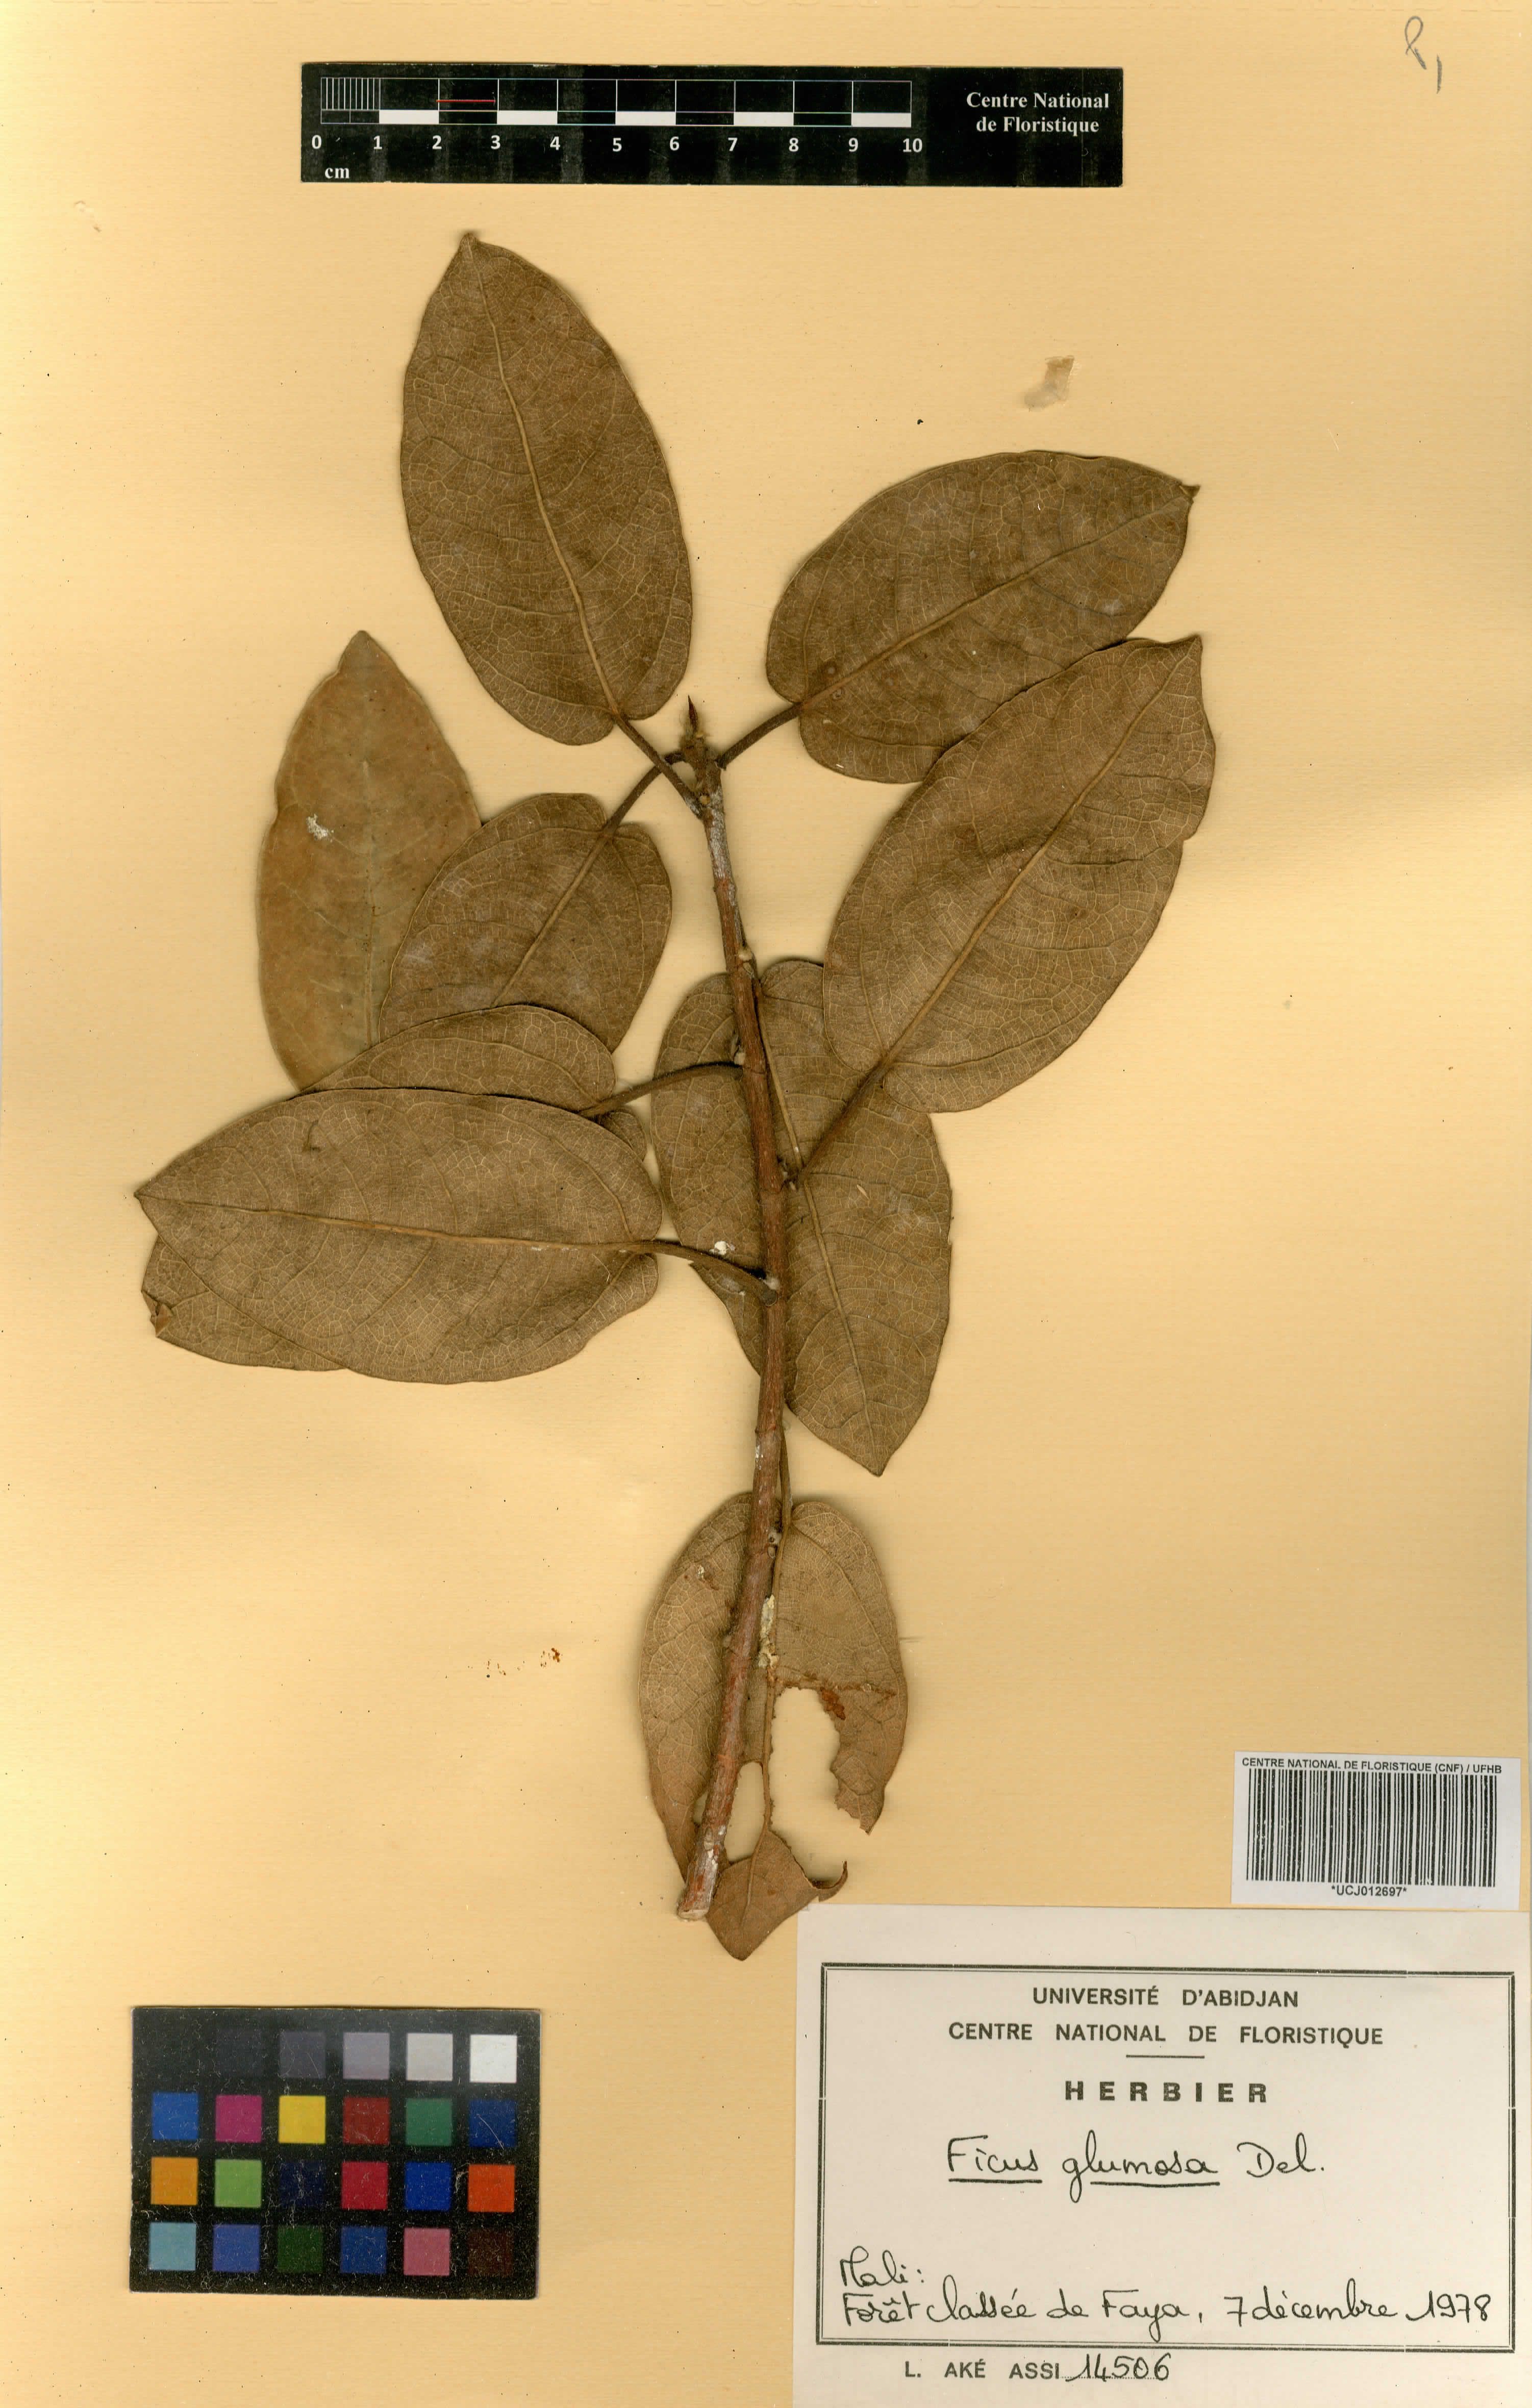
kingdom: Plantae
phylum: Tracheophyta
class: Magnoliopsida
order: Rosales
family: Moraceae
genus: Ficus
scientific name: Ficus glumosa
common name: Hairy rock fig
